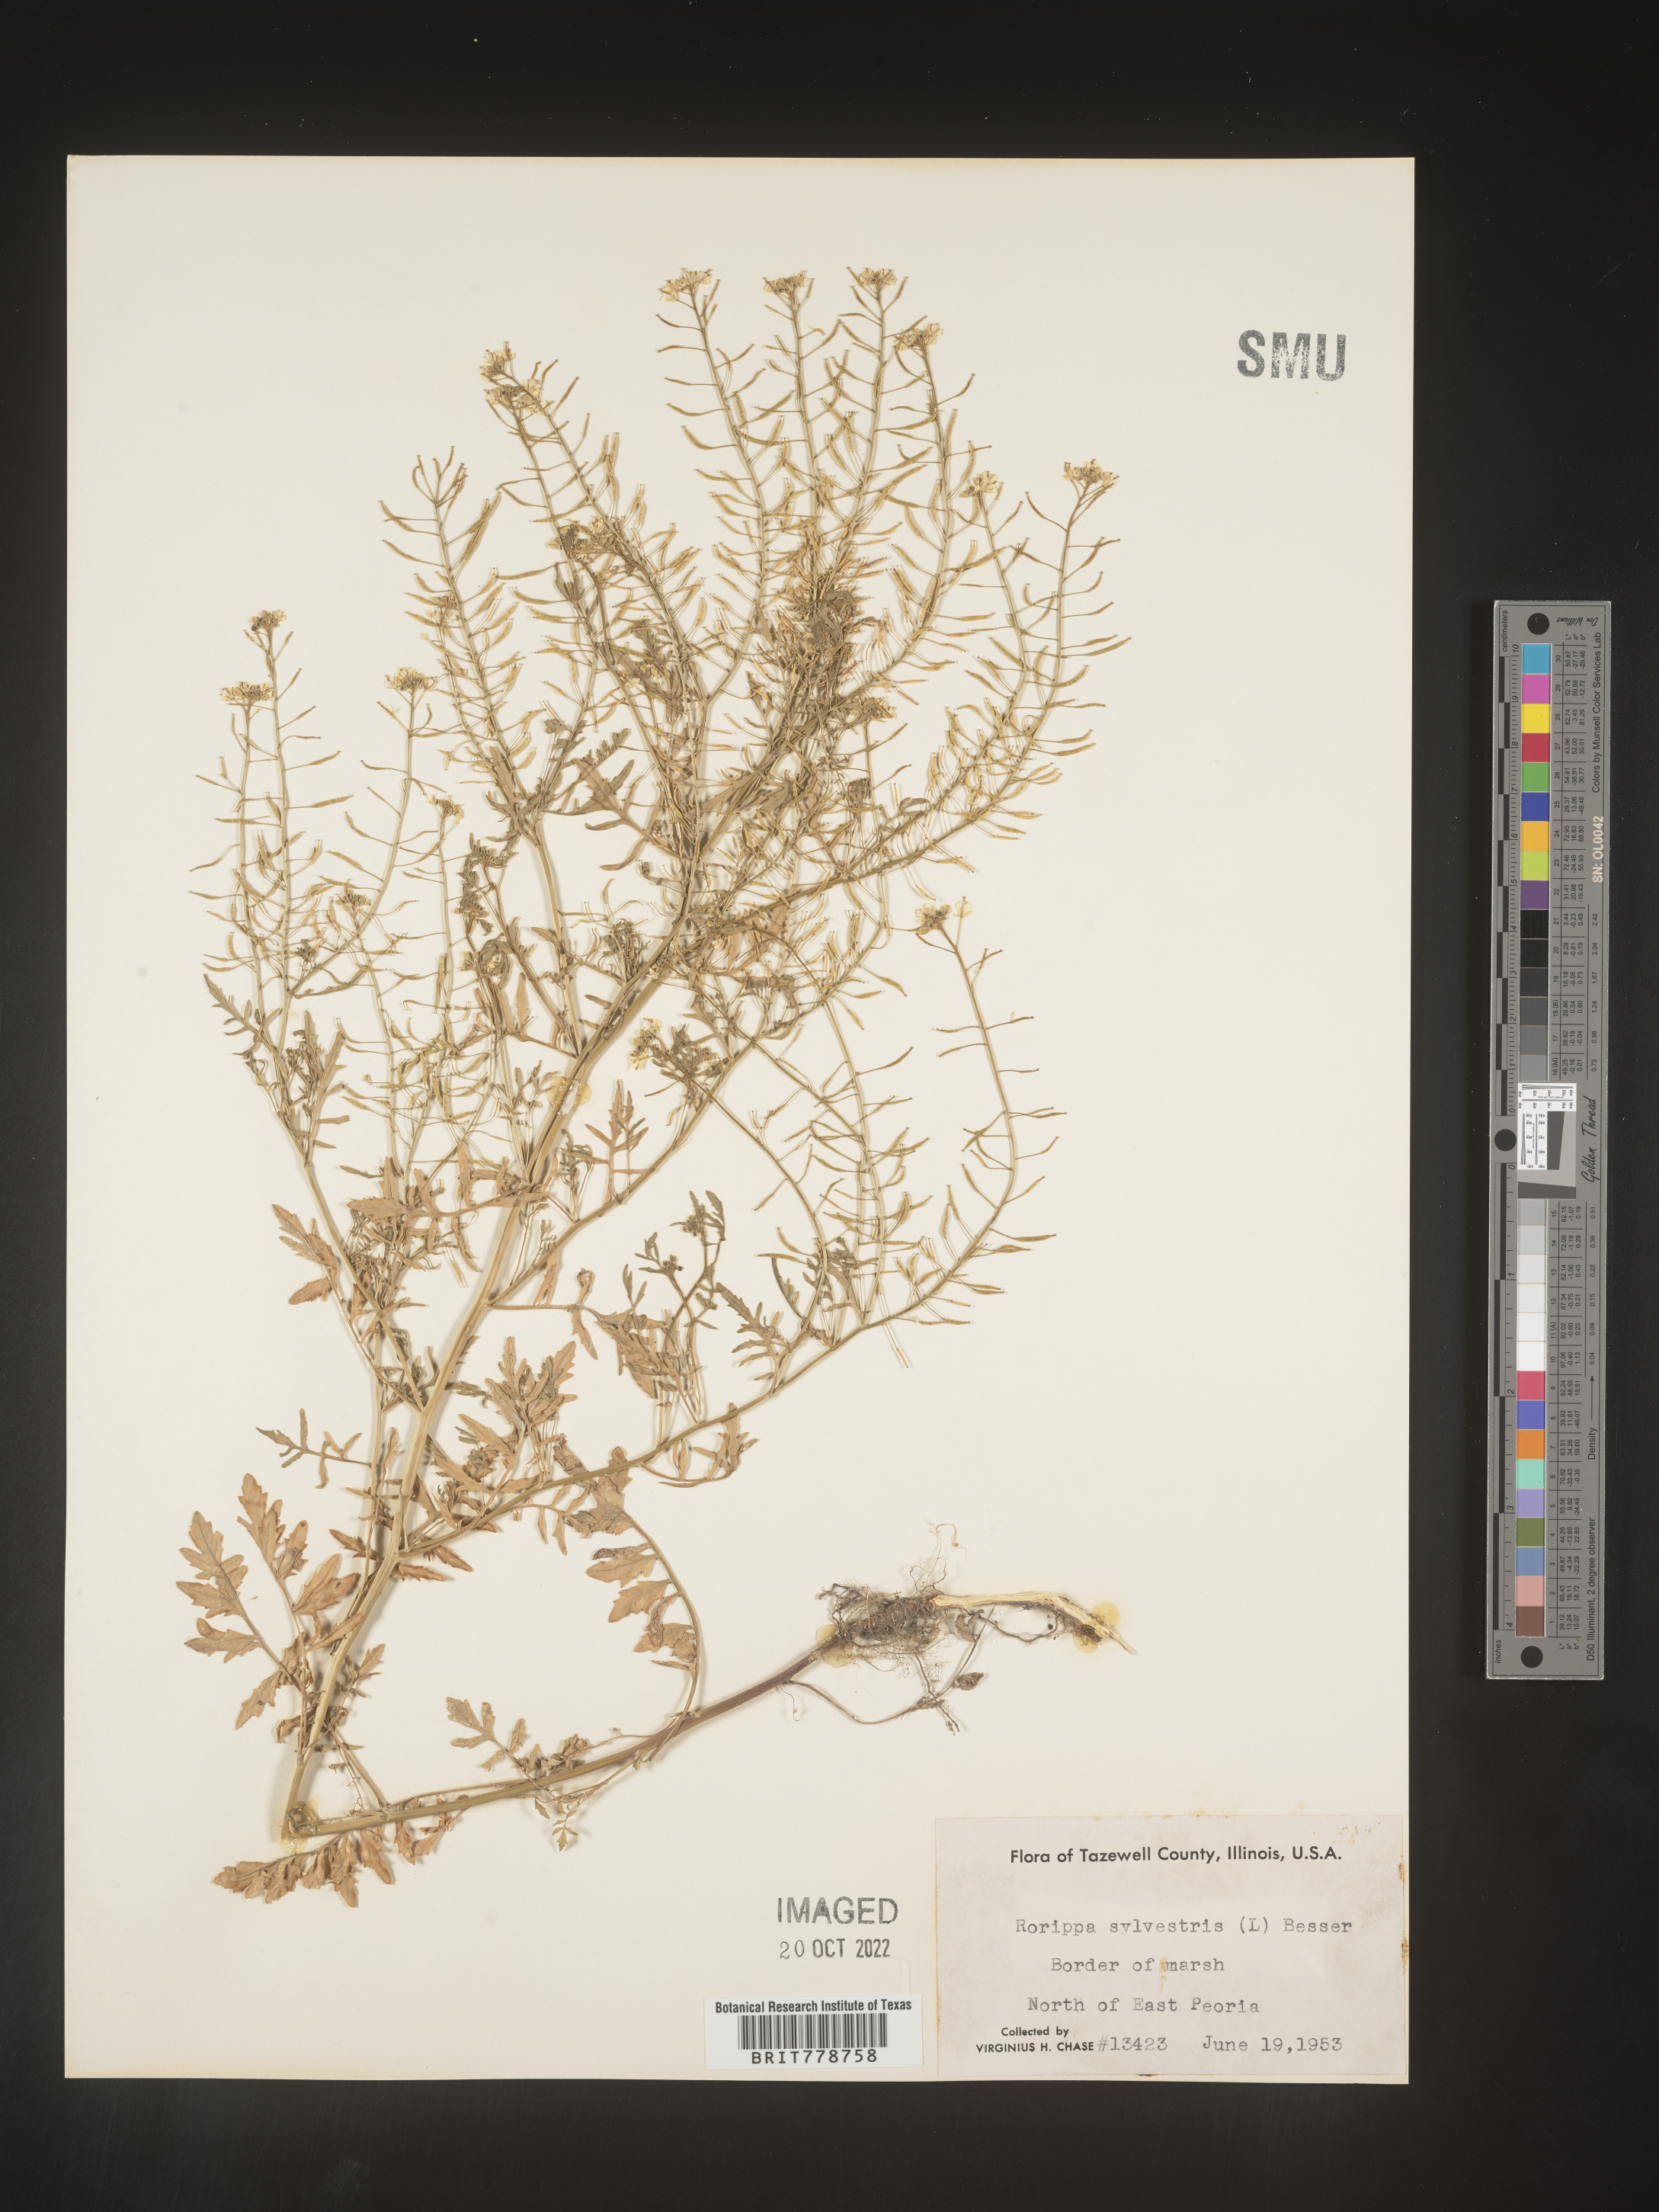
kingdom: Plantae
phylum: Tracheophyta
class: Magnoliopsida
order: Brassicales
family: Brassicaceae
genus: Rorippa
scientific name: Rorippa sylvestris
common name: Creeping yellowcress
